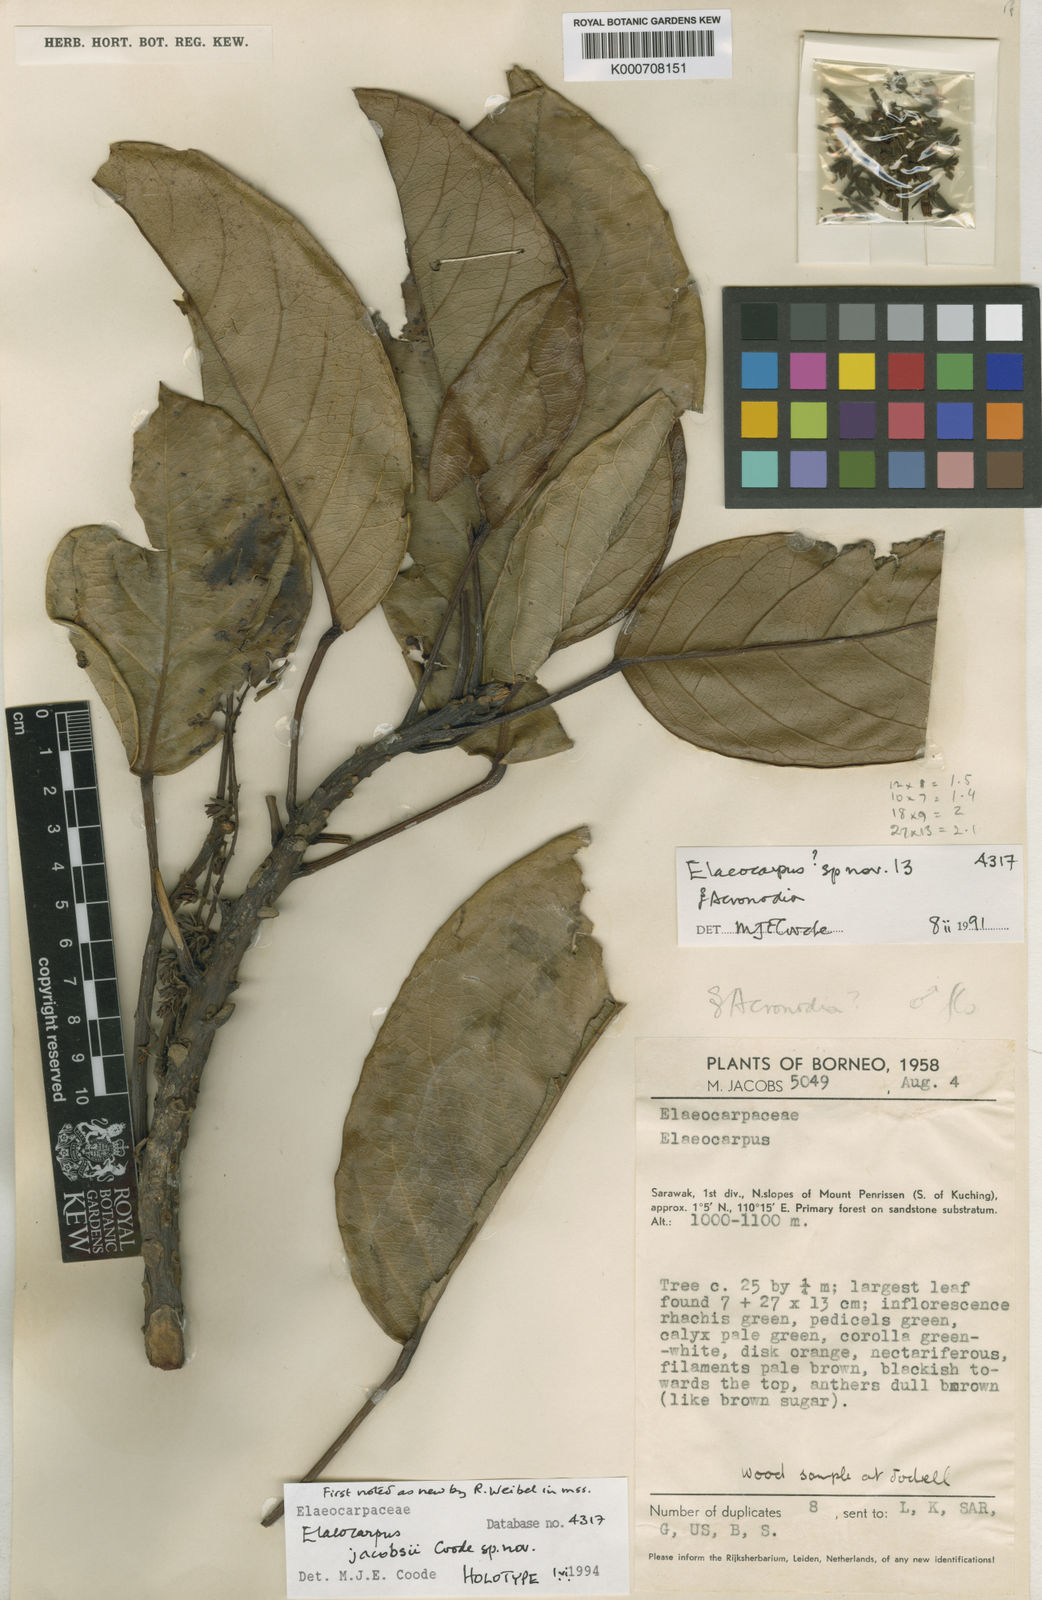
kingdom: Plantae
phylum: Tracheophyta
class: Magnoliopsida
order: Oxalidales
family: Elaeocarpaceae
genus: Elaeocarpus
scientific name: Elaeocarpus jacobsii
